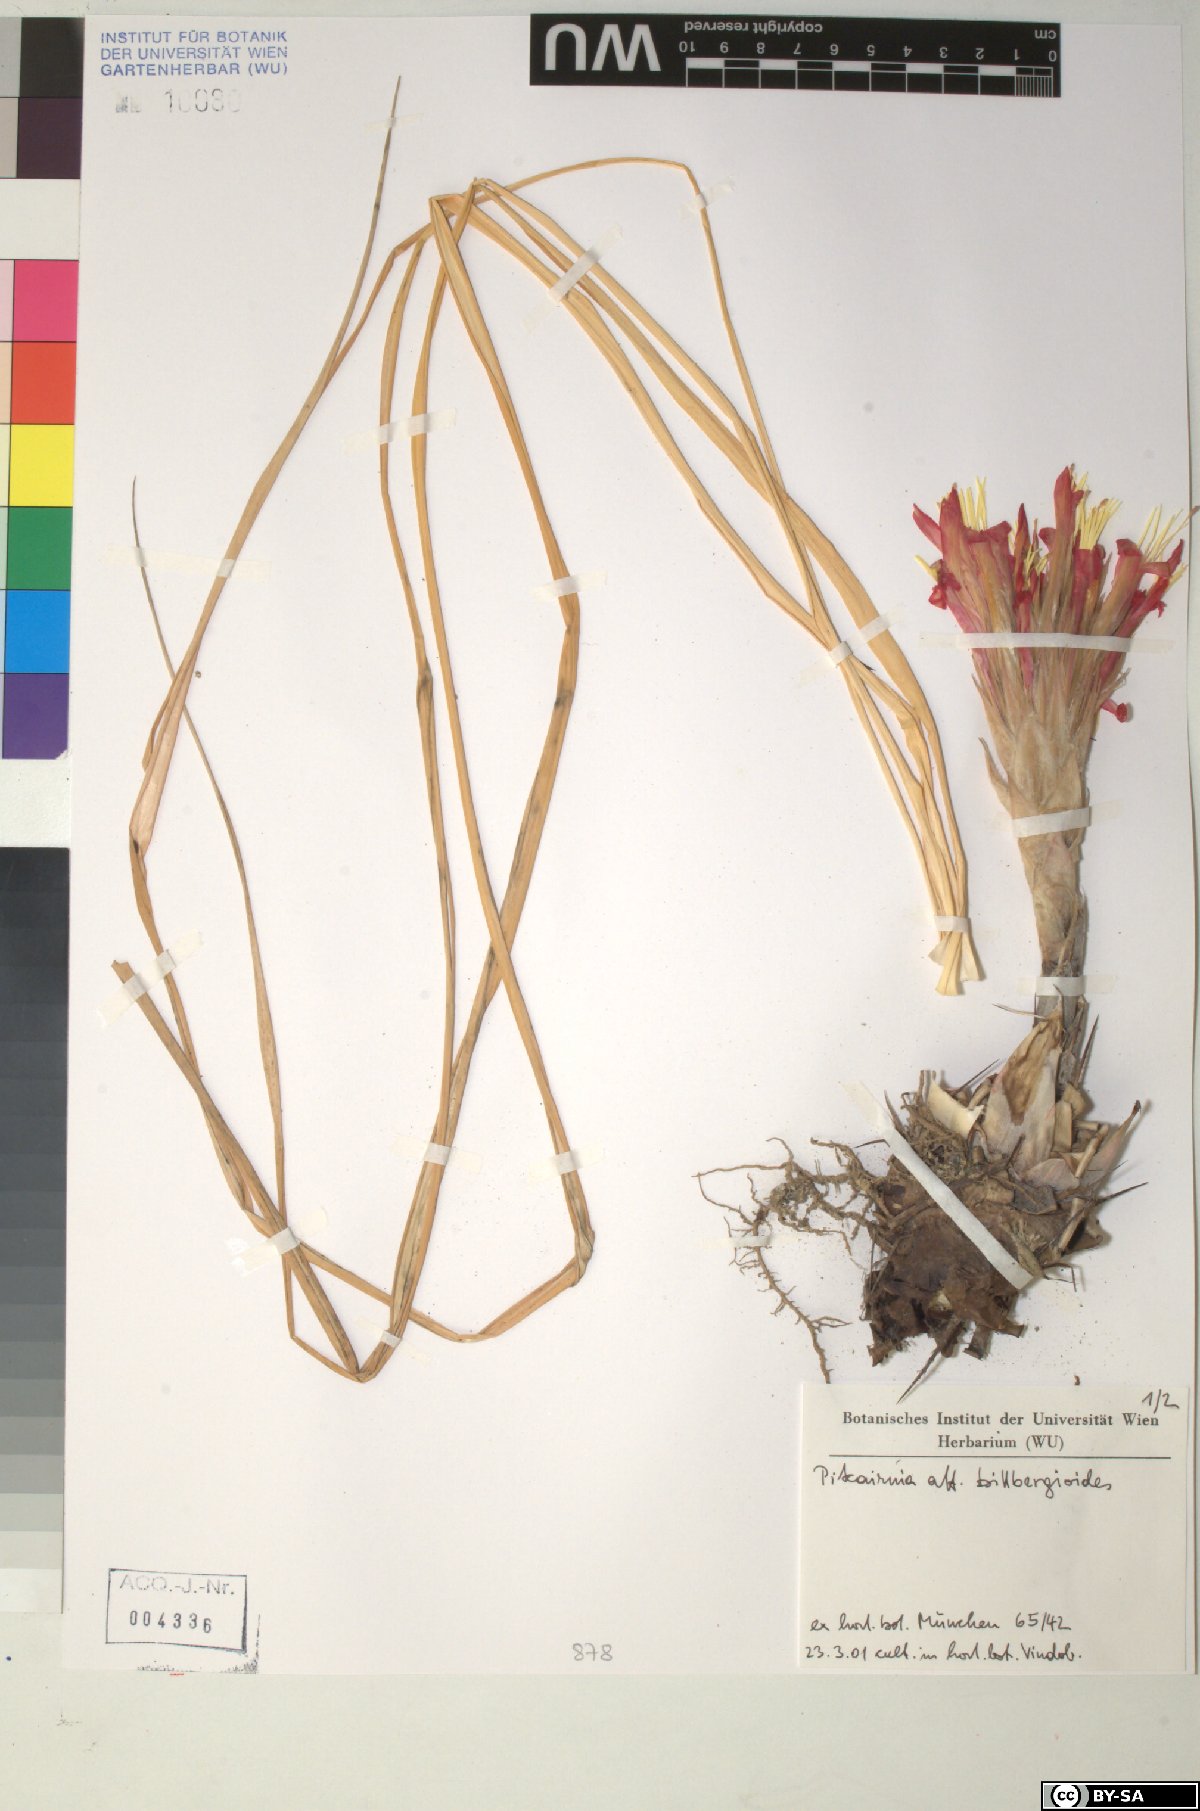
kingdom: Plantae
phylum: Tracheophyta
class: Liliopsida
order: Poales
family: Bromeliaceae
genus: Pitcairnia
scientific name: Pitcairnia billbergioides
